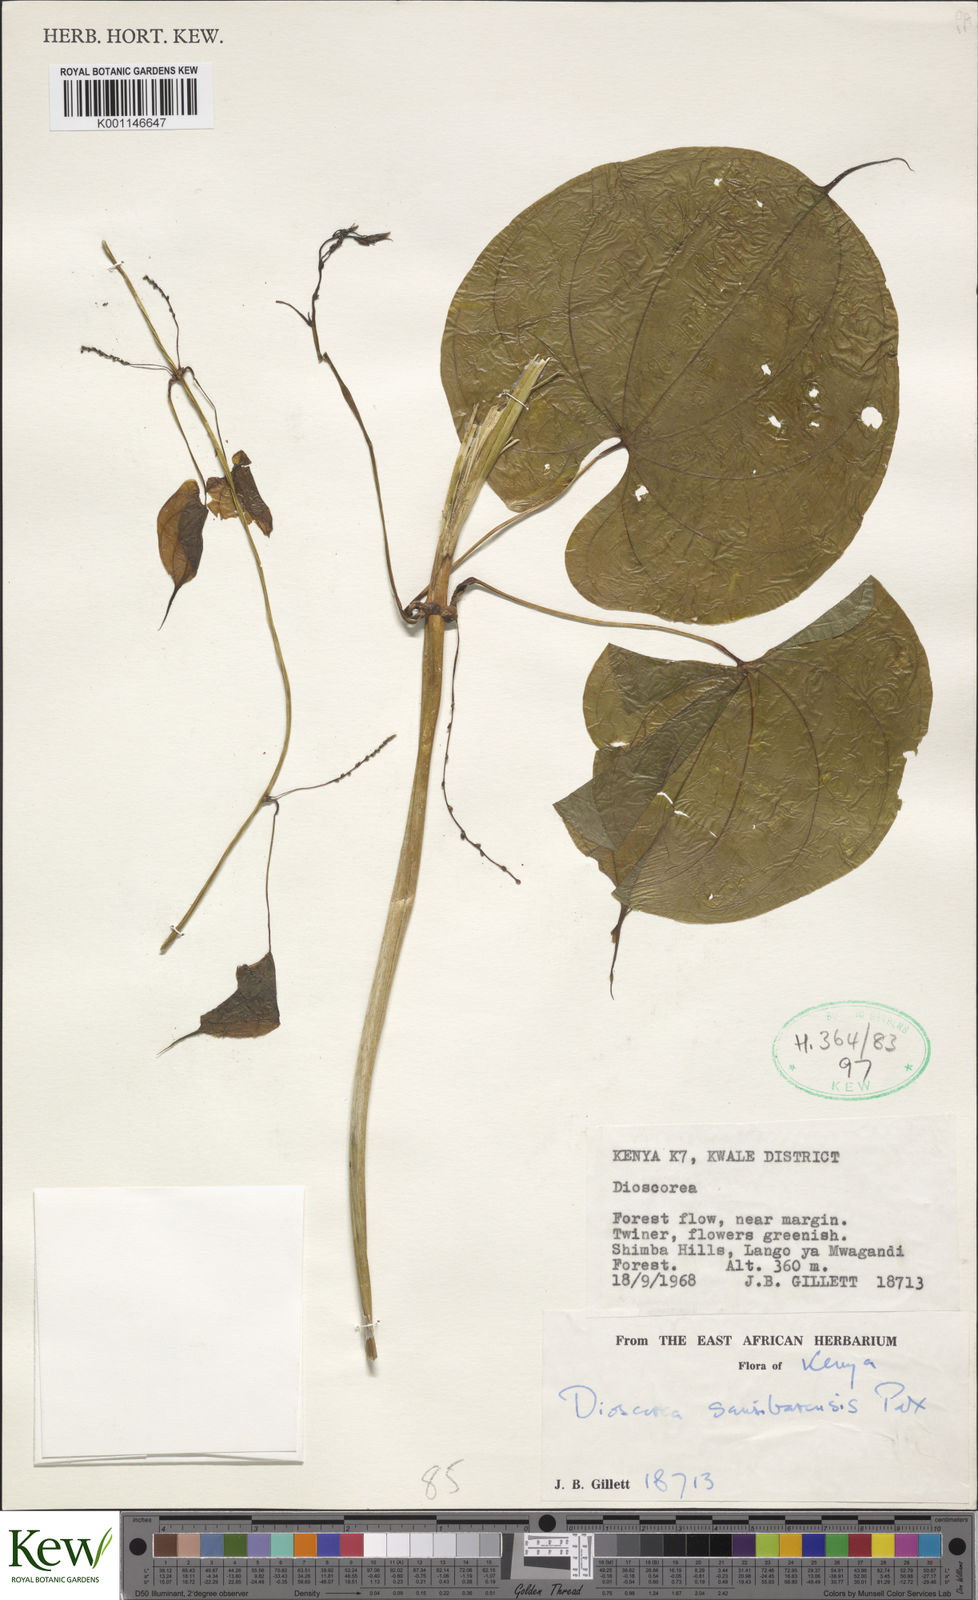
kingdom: Plantae
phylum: Tracheophyta
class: Liliopsida
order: Dioscoreales
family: Dioscoreaceae
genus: Dioscorea
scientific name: Dioscorea sansibarensis
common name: Zanzibar yam
